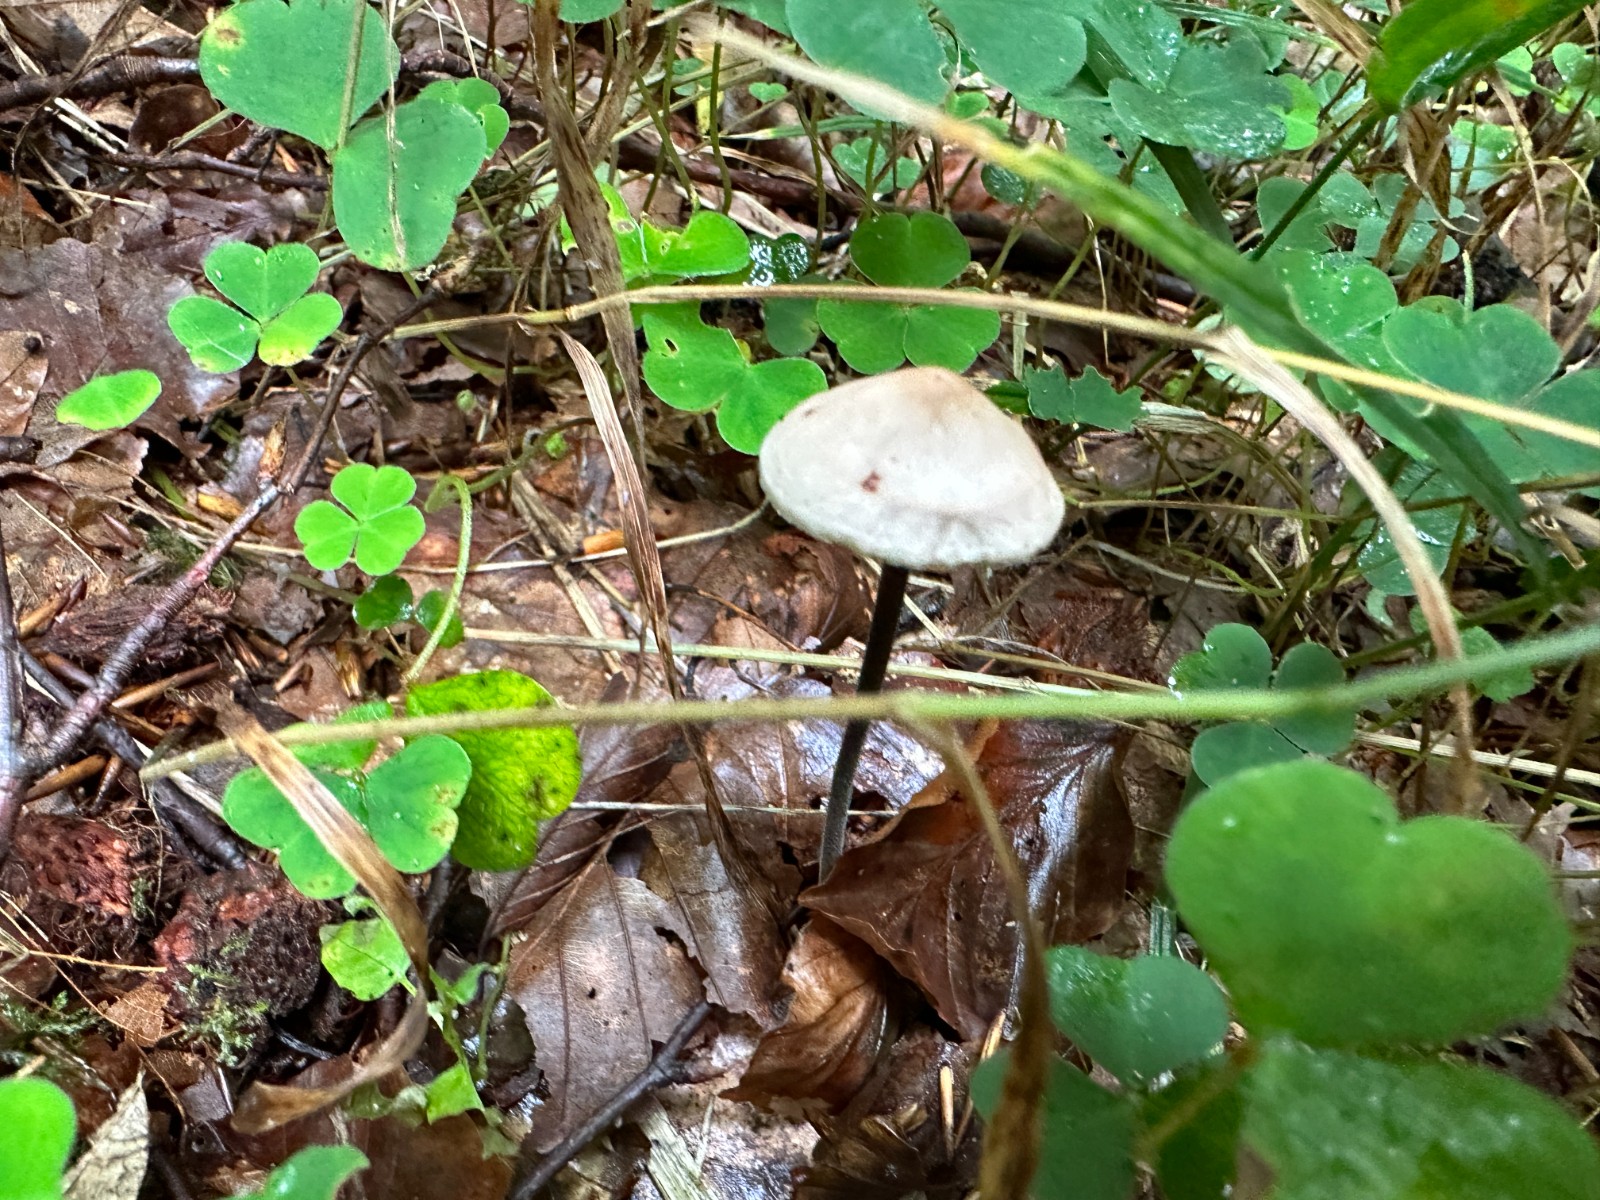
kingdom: Fungi
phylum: Basidiomycota
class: Agaricomycetes
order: Agaricales
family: Omphalotaceae
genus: Mycetinis
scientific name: Mycetinis alliaceus
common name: stor løghat
